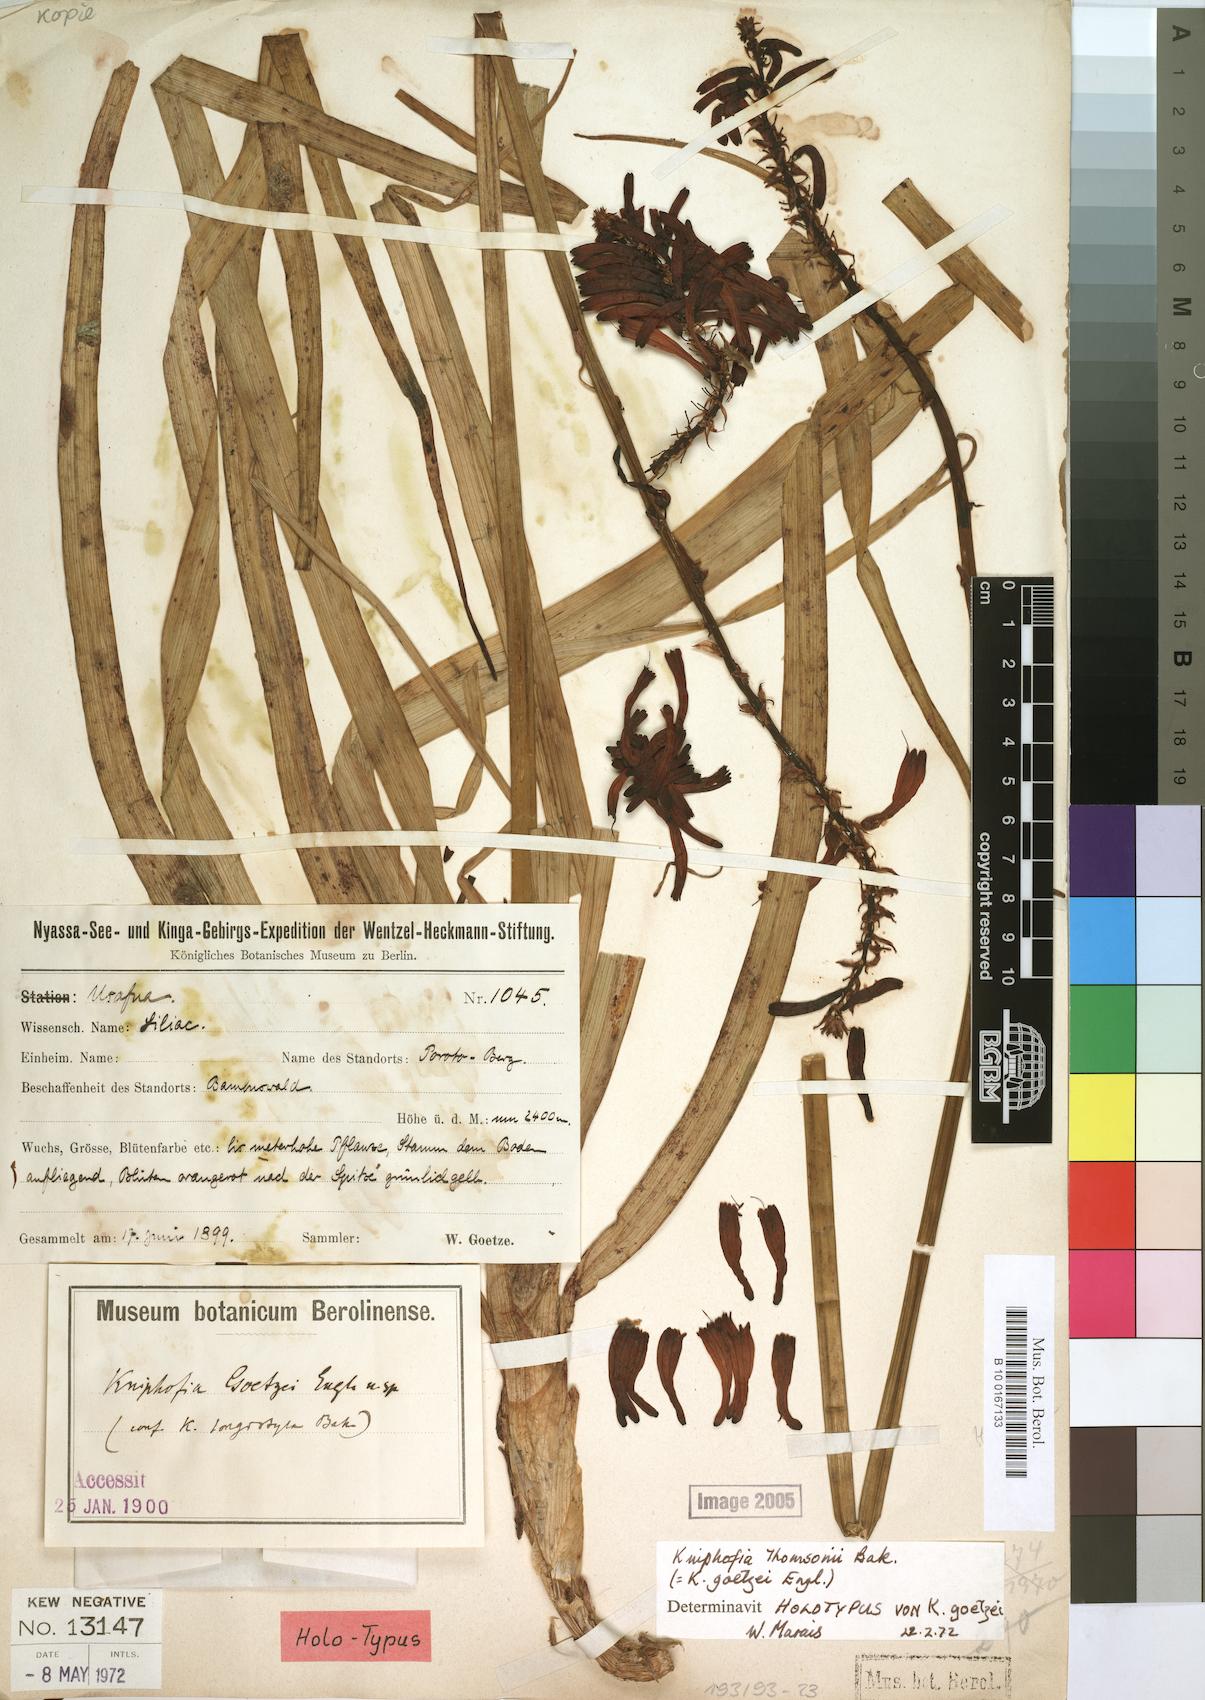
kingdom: Plantae
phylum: Tracheophyta
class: Liliopsida
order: Asparagales
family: Asphodelaceae
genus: Kniphofia
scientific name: Kniphofia thomsonii
